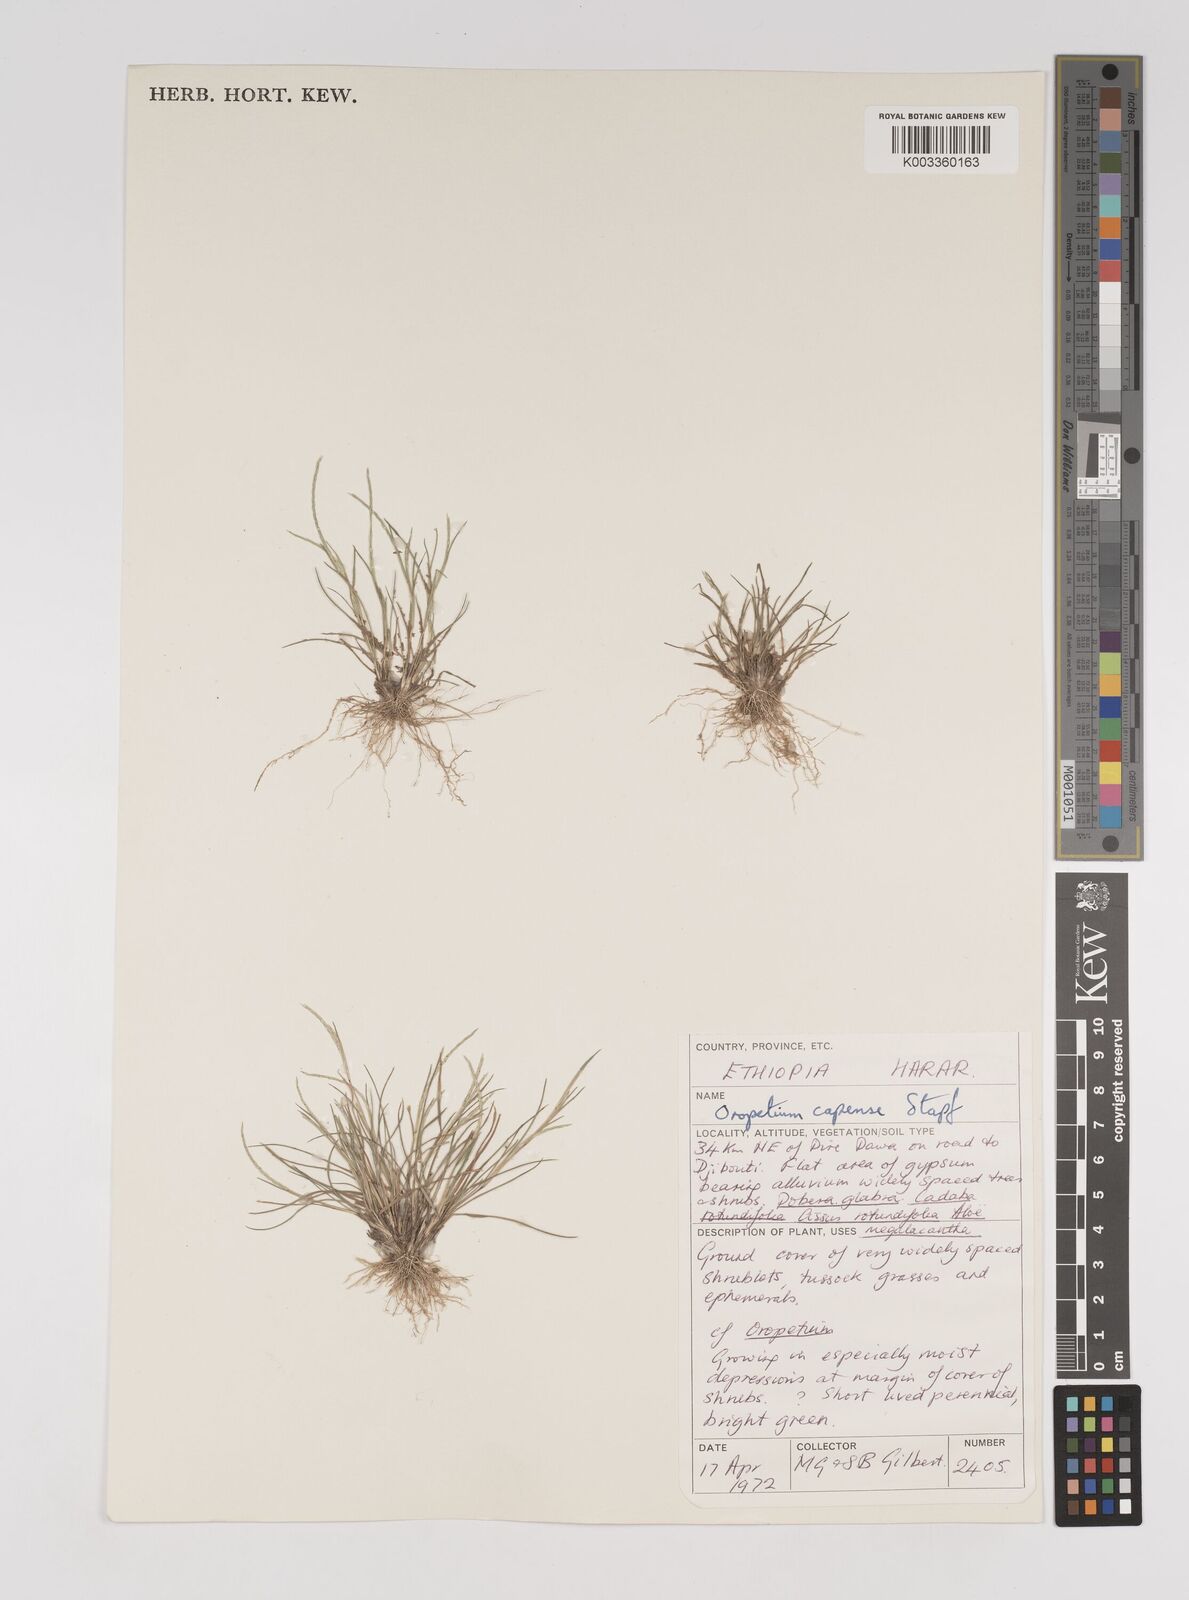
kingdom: Plantae
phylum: Tracheophyta
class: Liliopsida
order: Poales
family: Poaceae
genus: Oropetium
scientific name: Oropetium capense
